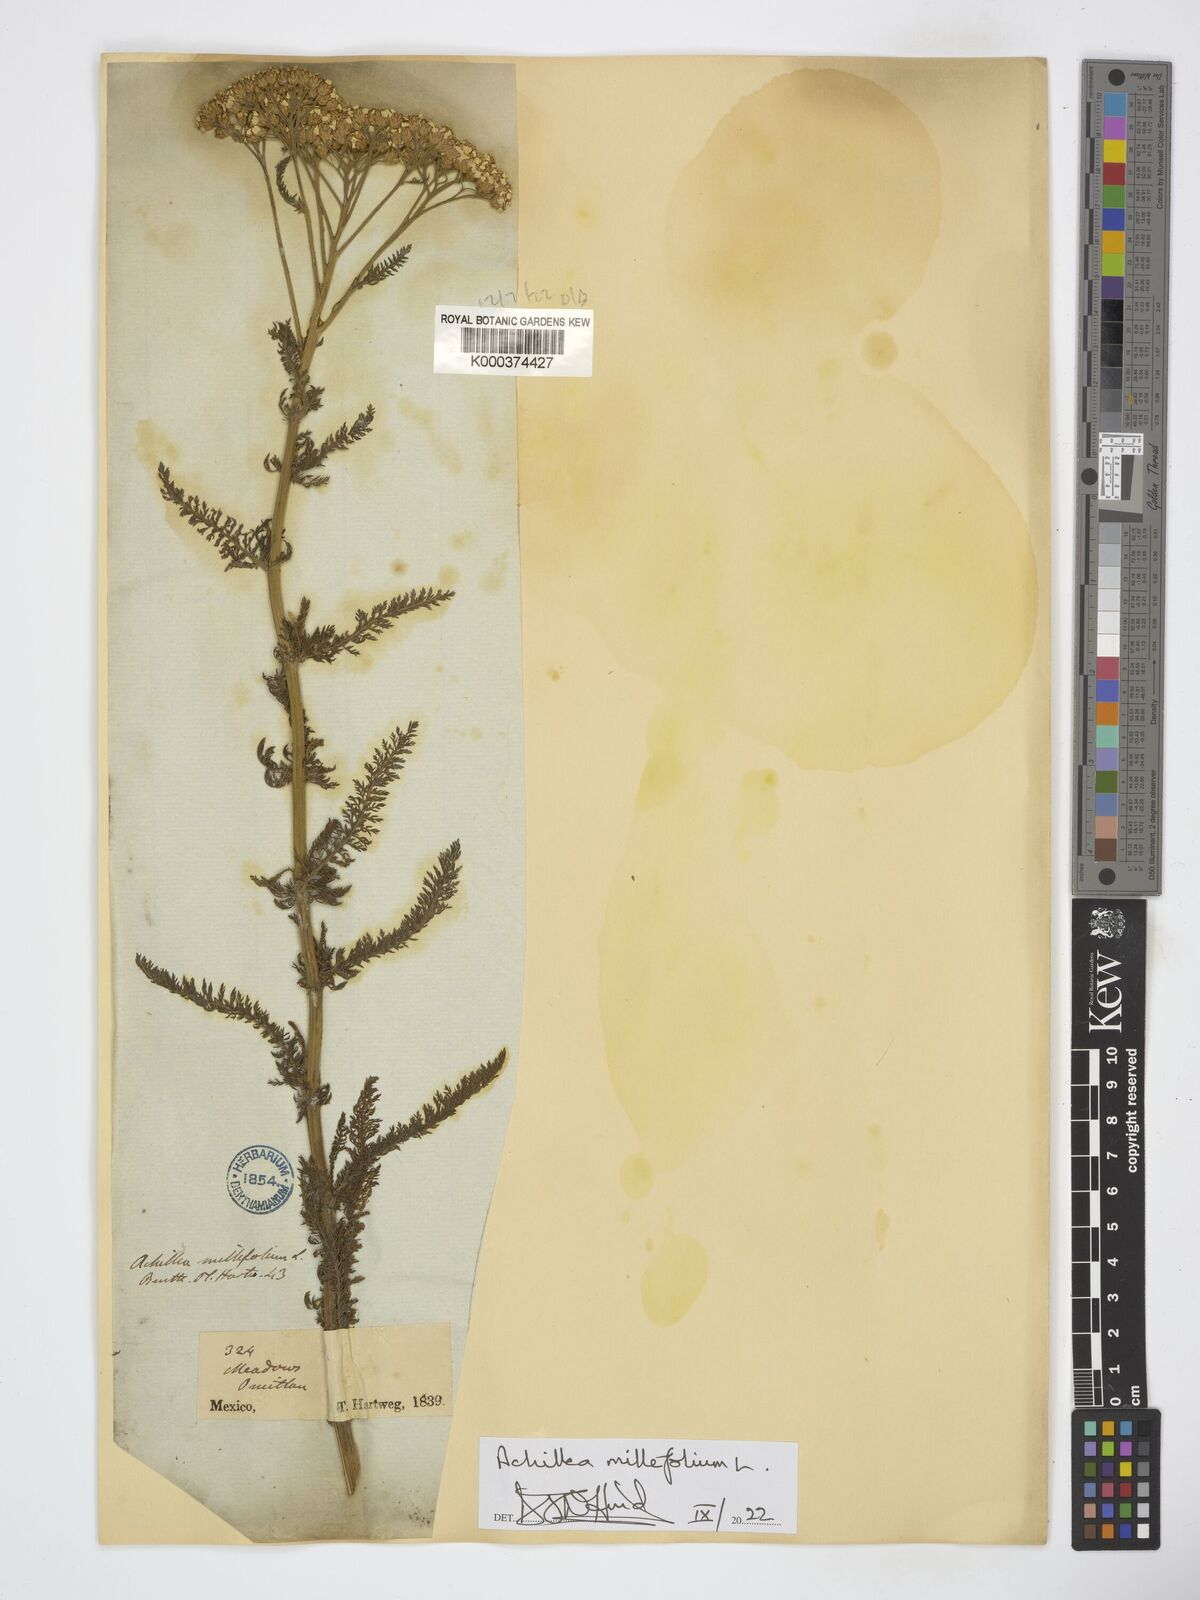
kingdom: Plantae
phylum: Tracheophyta
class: Magnoliopsida
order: Asterales
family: Asteraceae
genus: Achillea
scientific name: Achillea millefolium
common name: Yarrow
